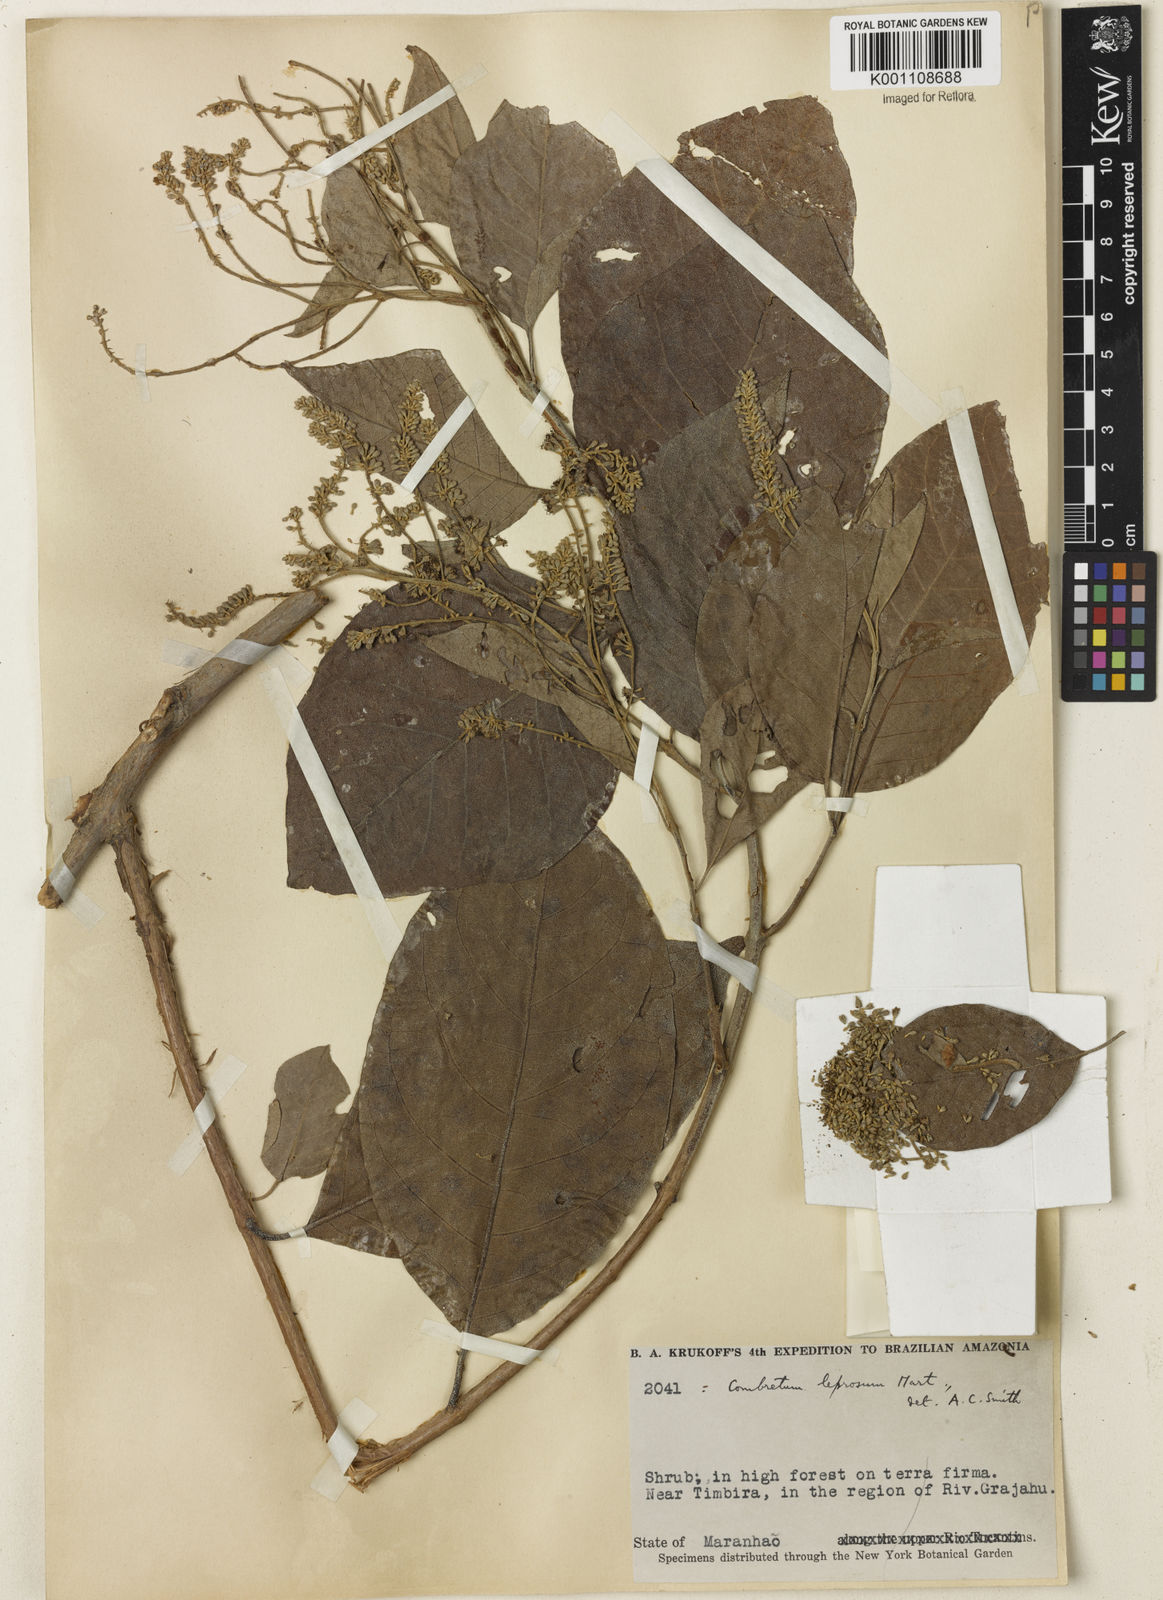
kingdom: Plantae
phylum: Tracheophyta
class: Magnoliopsida
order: Myrtales
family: Combretaceae
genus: Combretum
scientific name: Combretum leprosum
